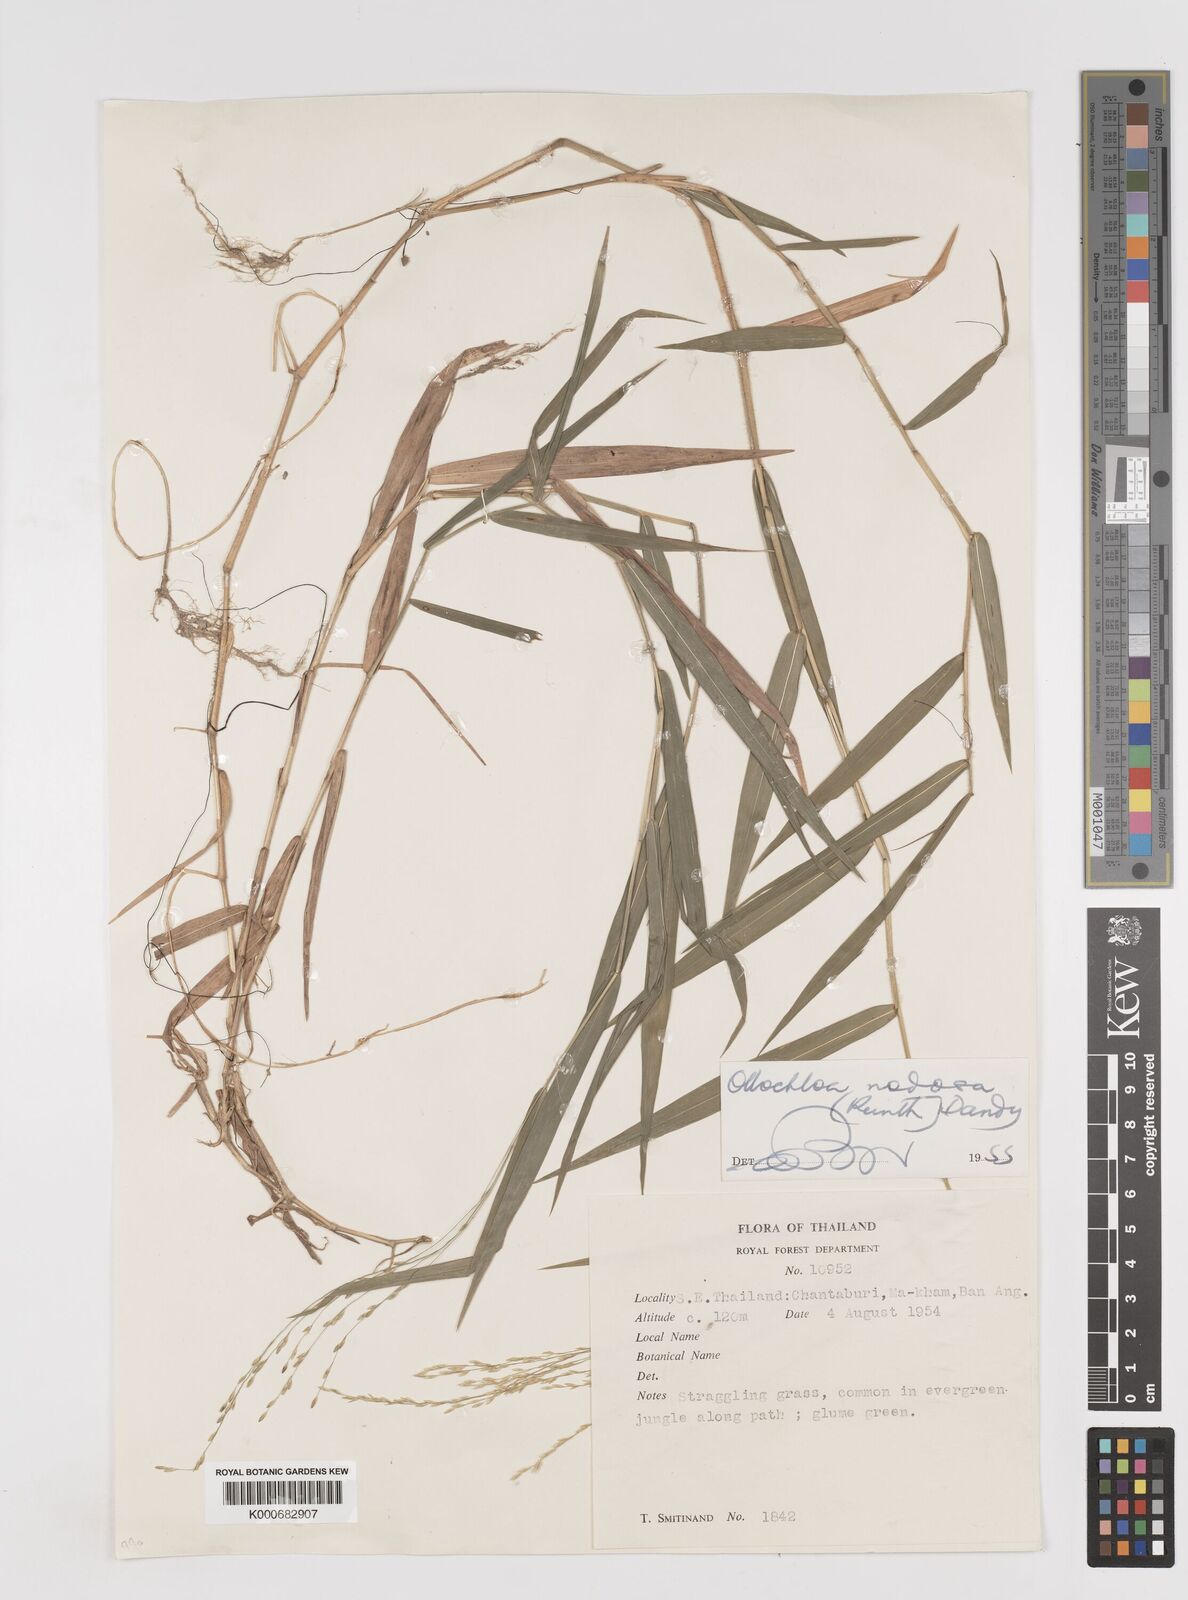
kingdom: Plantae
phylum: Tracheophyta
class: Liliopsida
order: Poales
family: Poaceae
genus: Ottochloa
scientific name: Ottochloa nodosa
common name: Slender-panic grass
